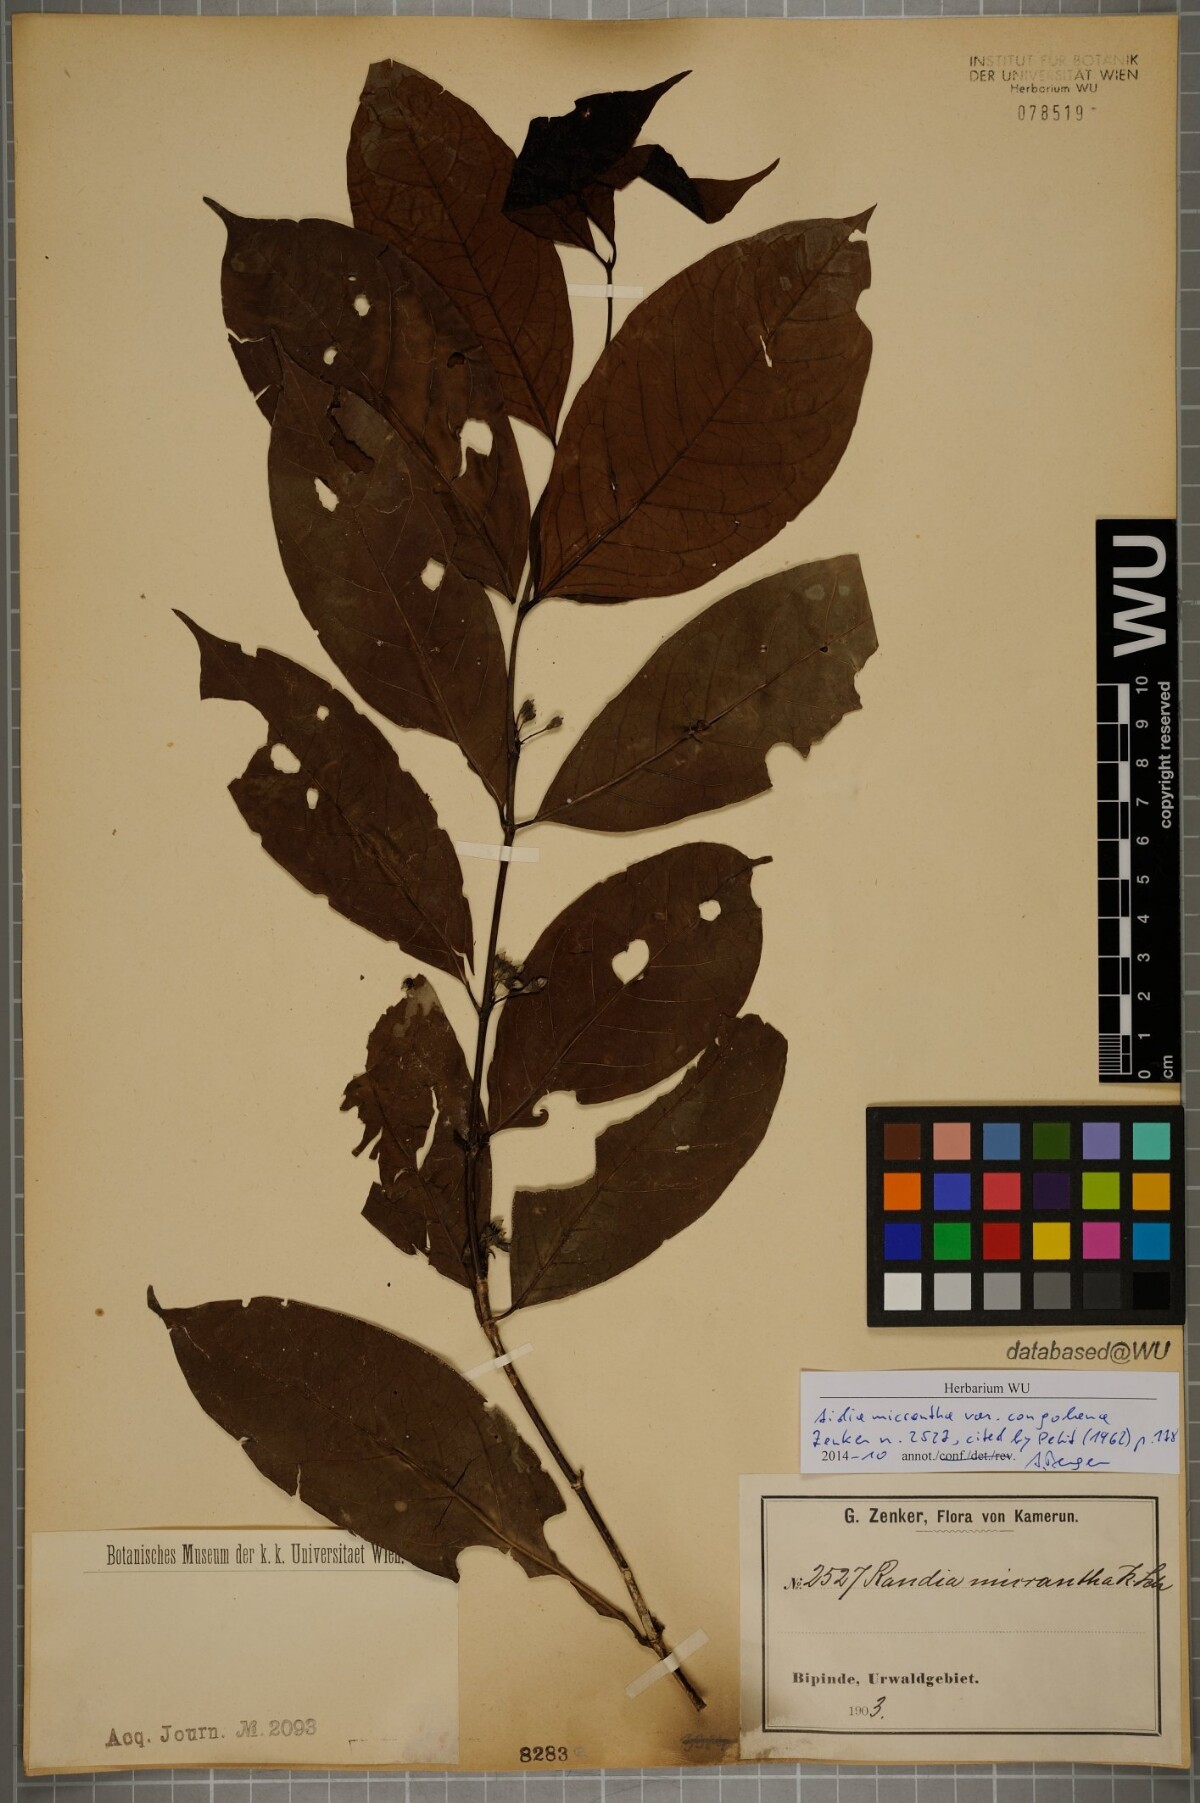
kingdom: Plantae
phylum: Tracheophyta
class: Magnoliopsida
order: Gentianales
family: Rubiaceae
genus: Aidia
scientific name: Aidia micrantha
